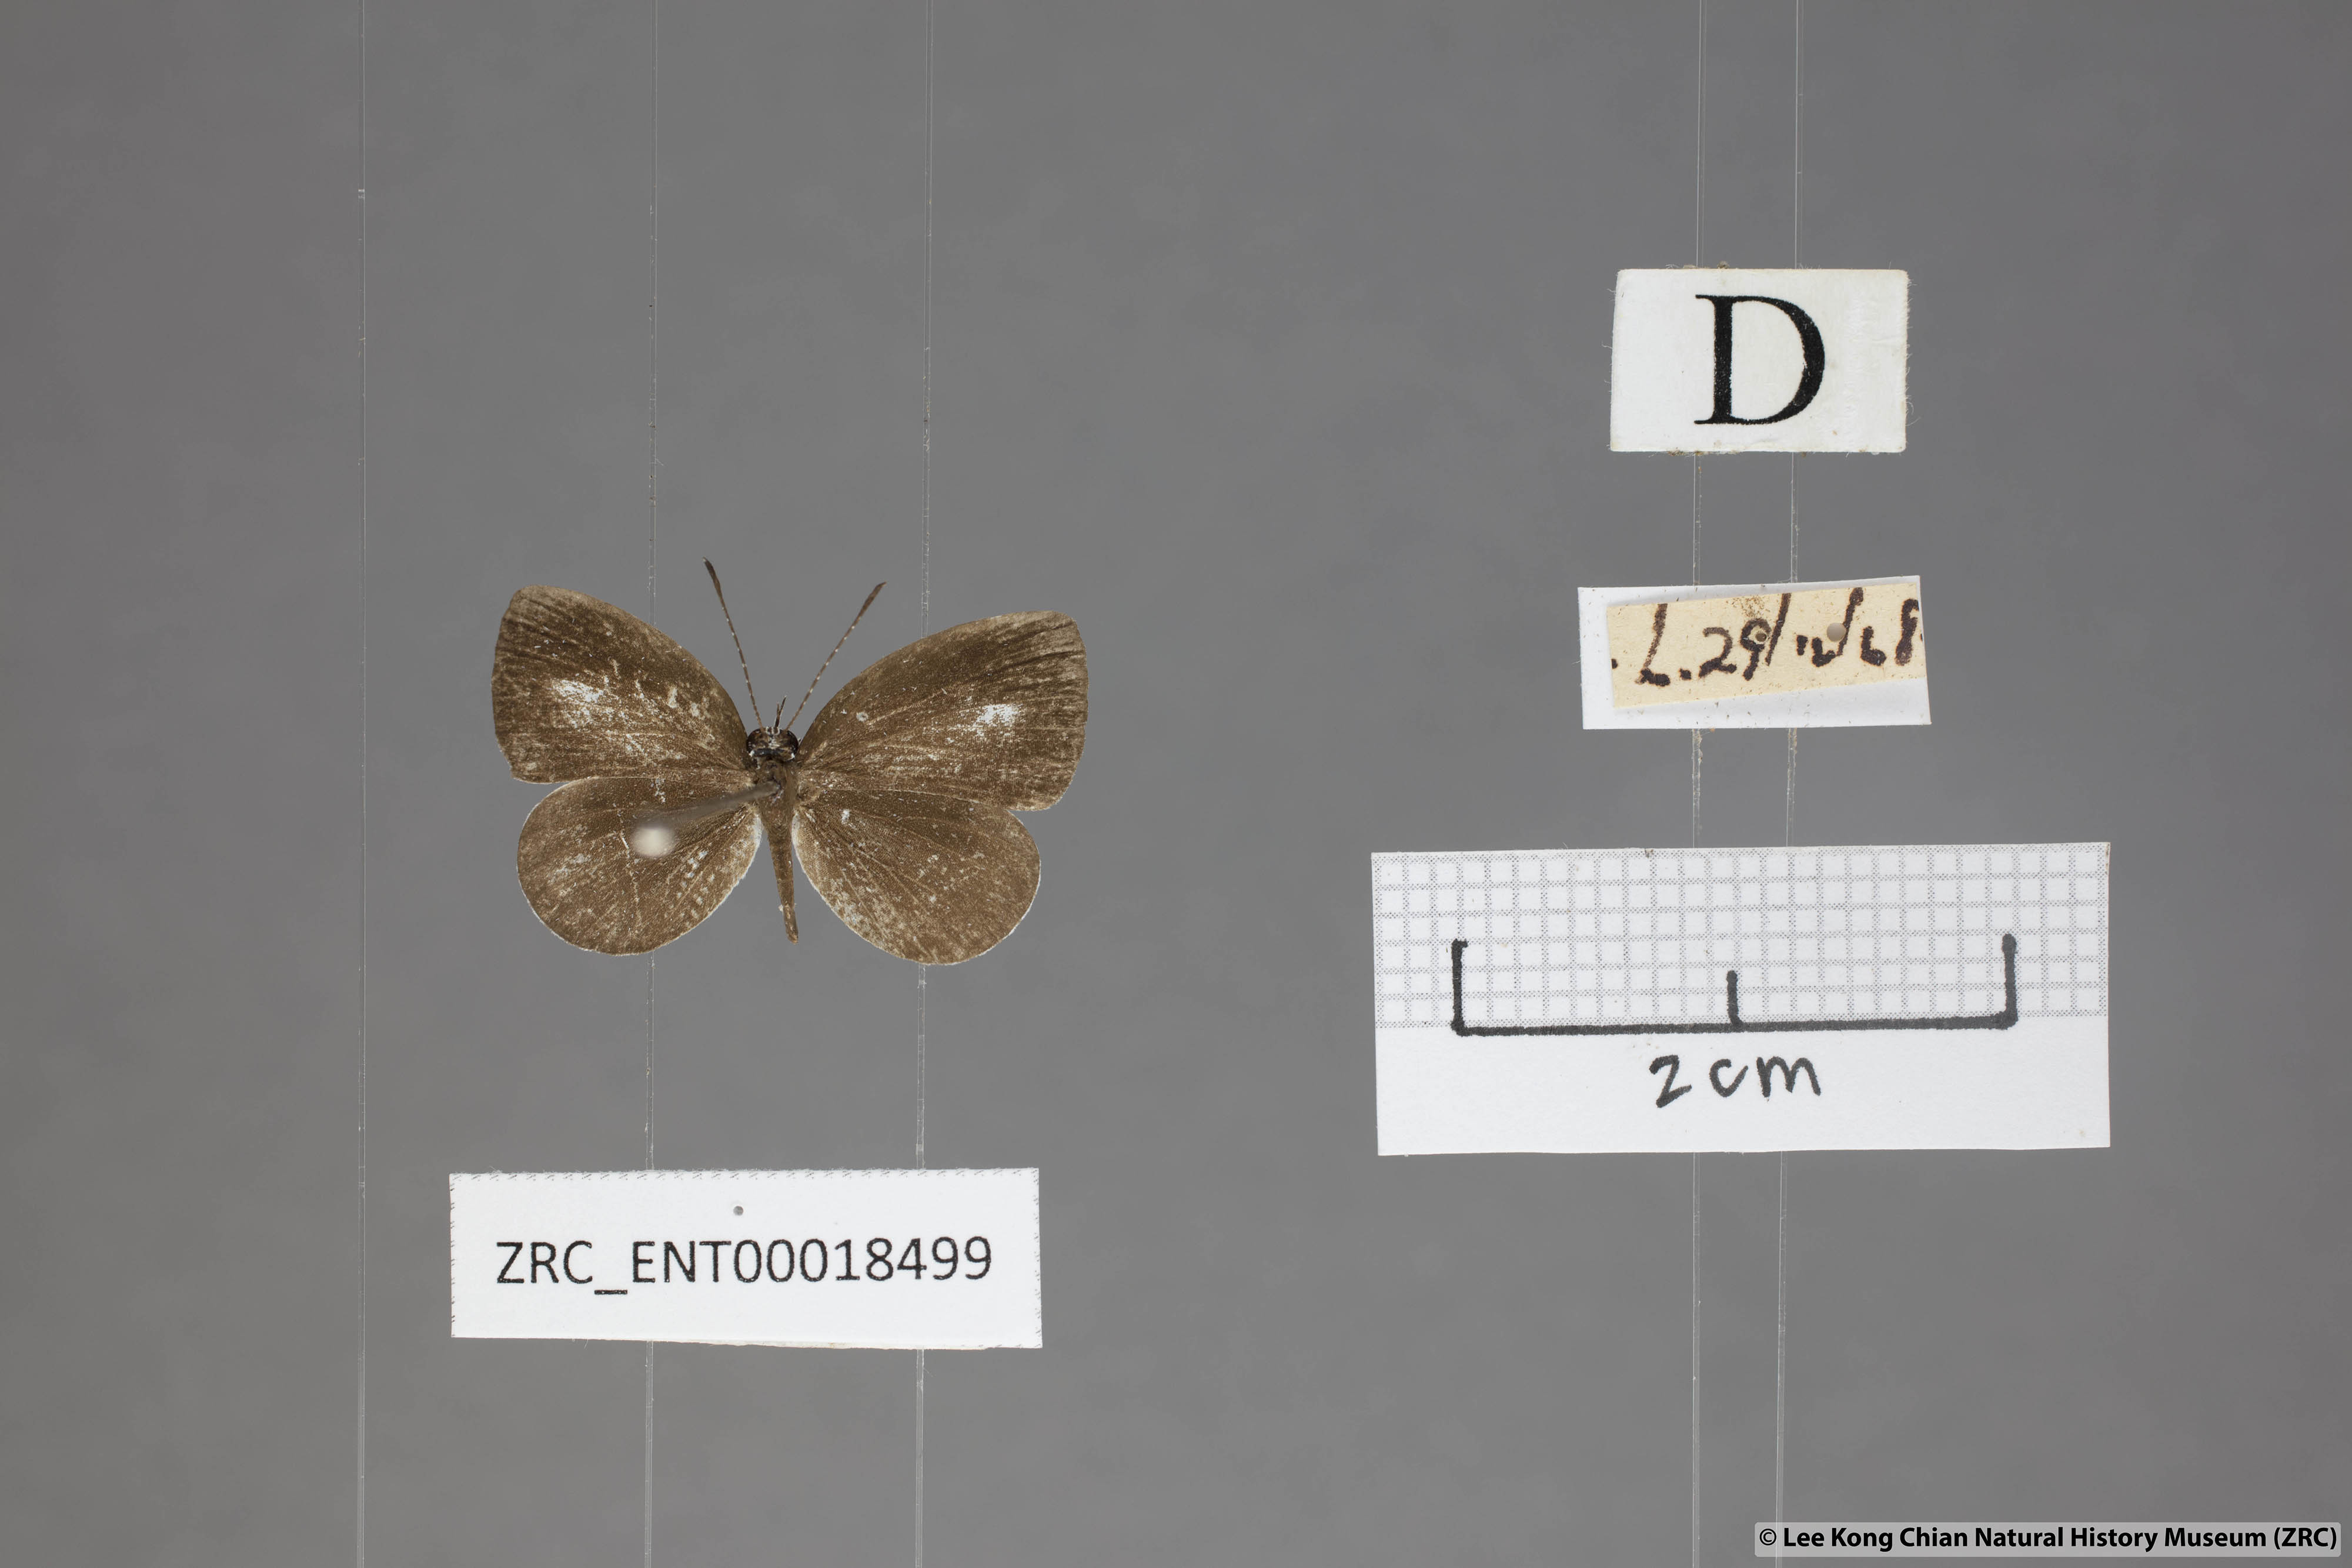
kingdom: Animalia
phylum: Arthropoda
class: Insecta
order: Lepidoptera
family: Lycaenidae
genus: Neopithecops
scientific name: Neopithecops zalmora
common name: Quaker
